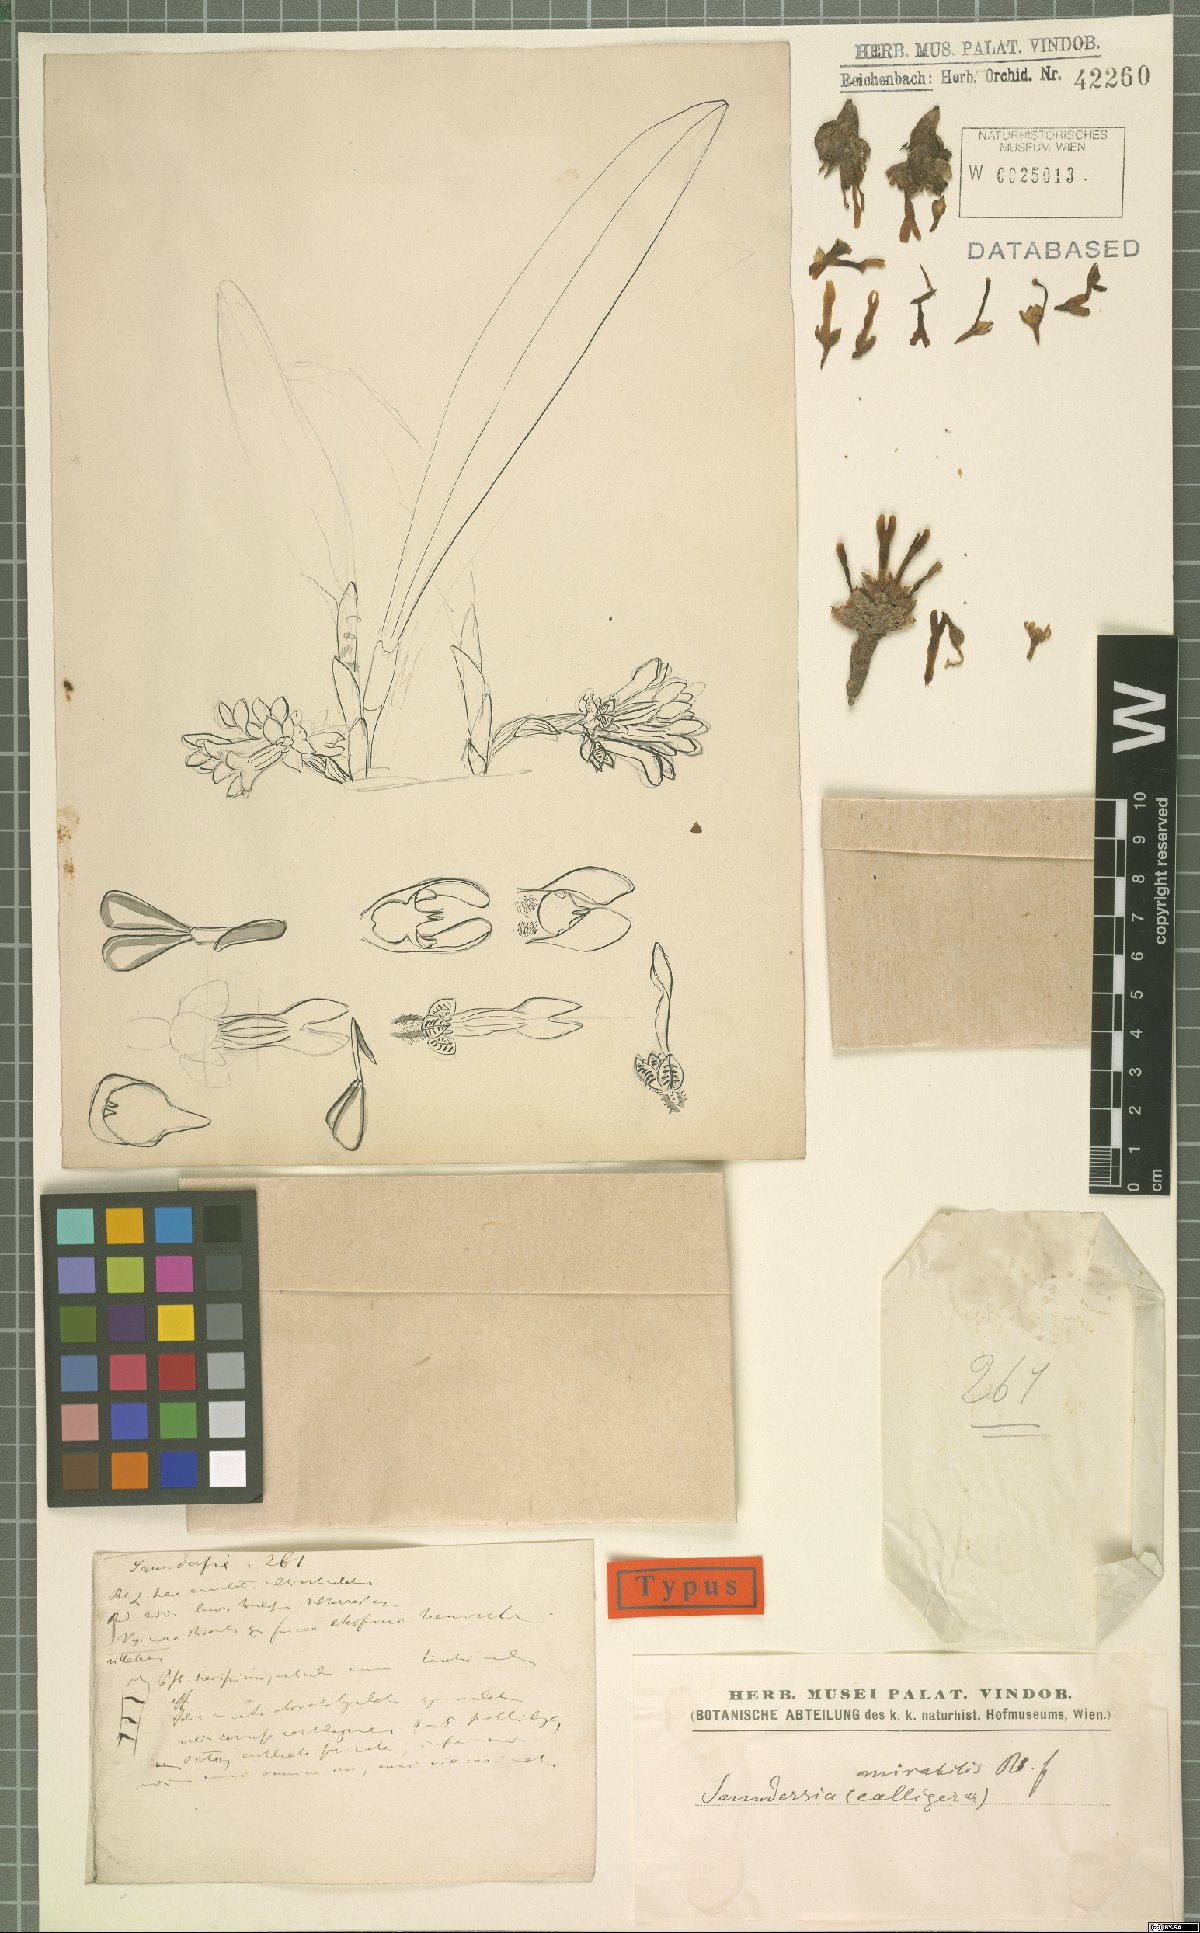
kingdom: Plantae
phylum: Tracheophyta
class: Liliopsida
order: Asparagales
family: Orchidaceae
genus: Saundersia
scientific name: Saundersia mirabilis
